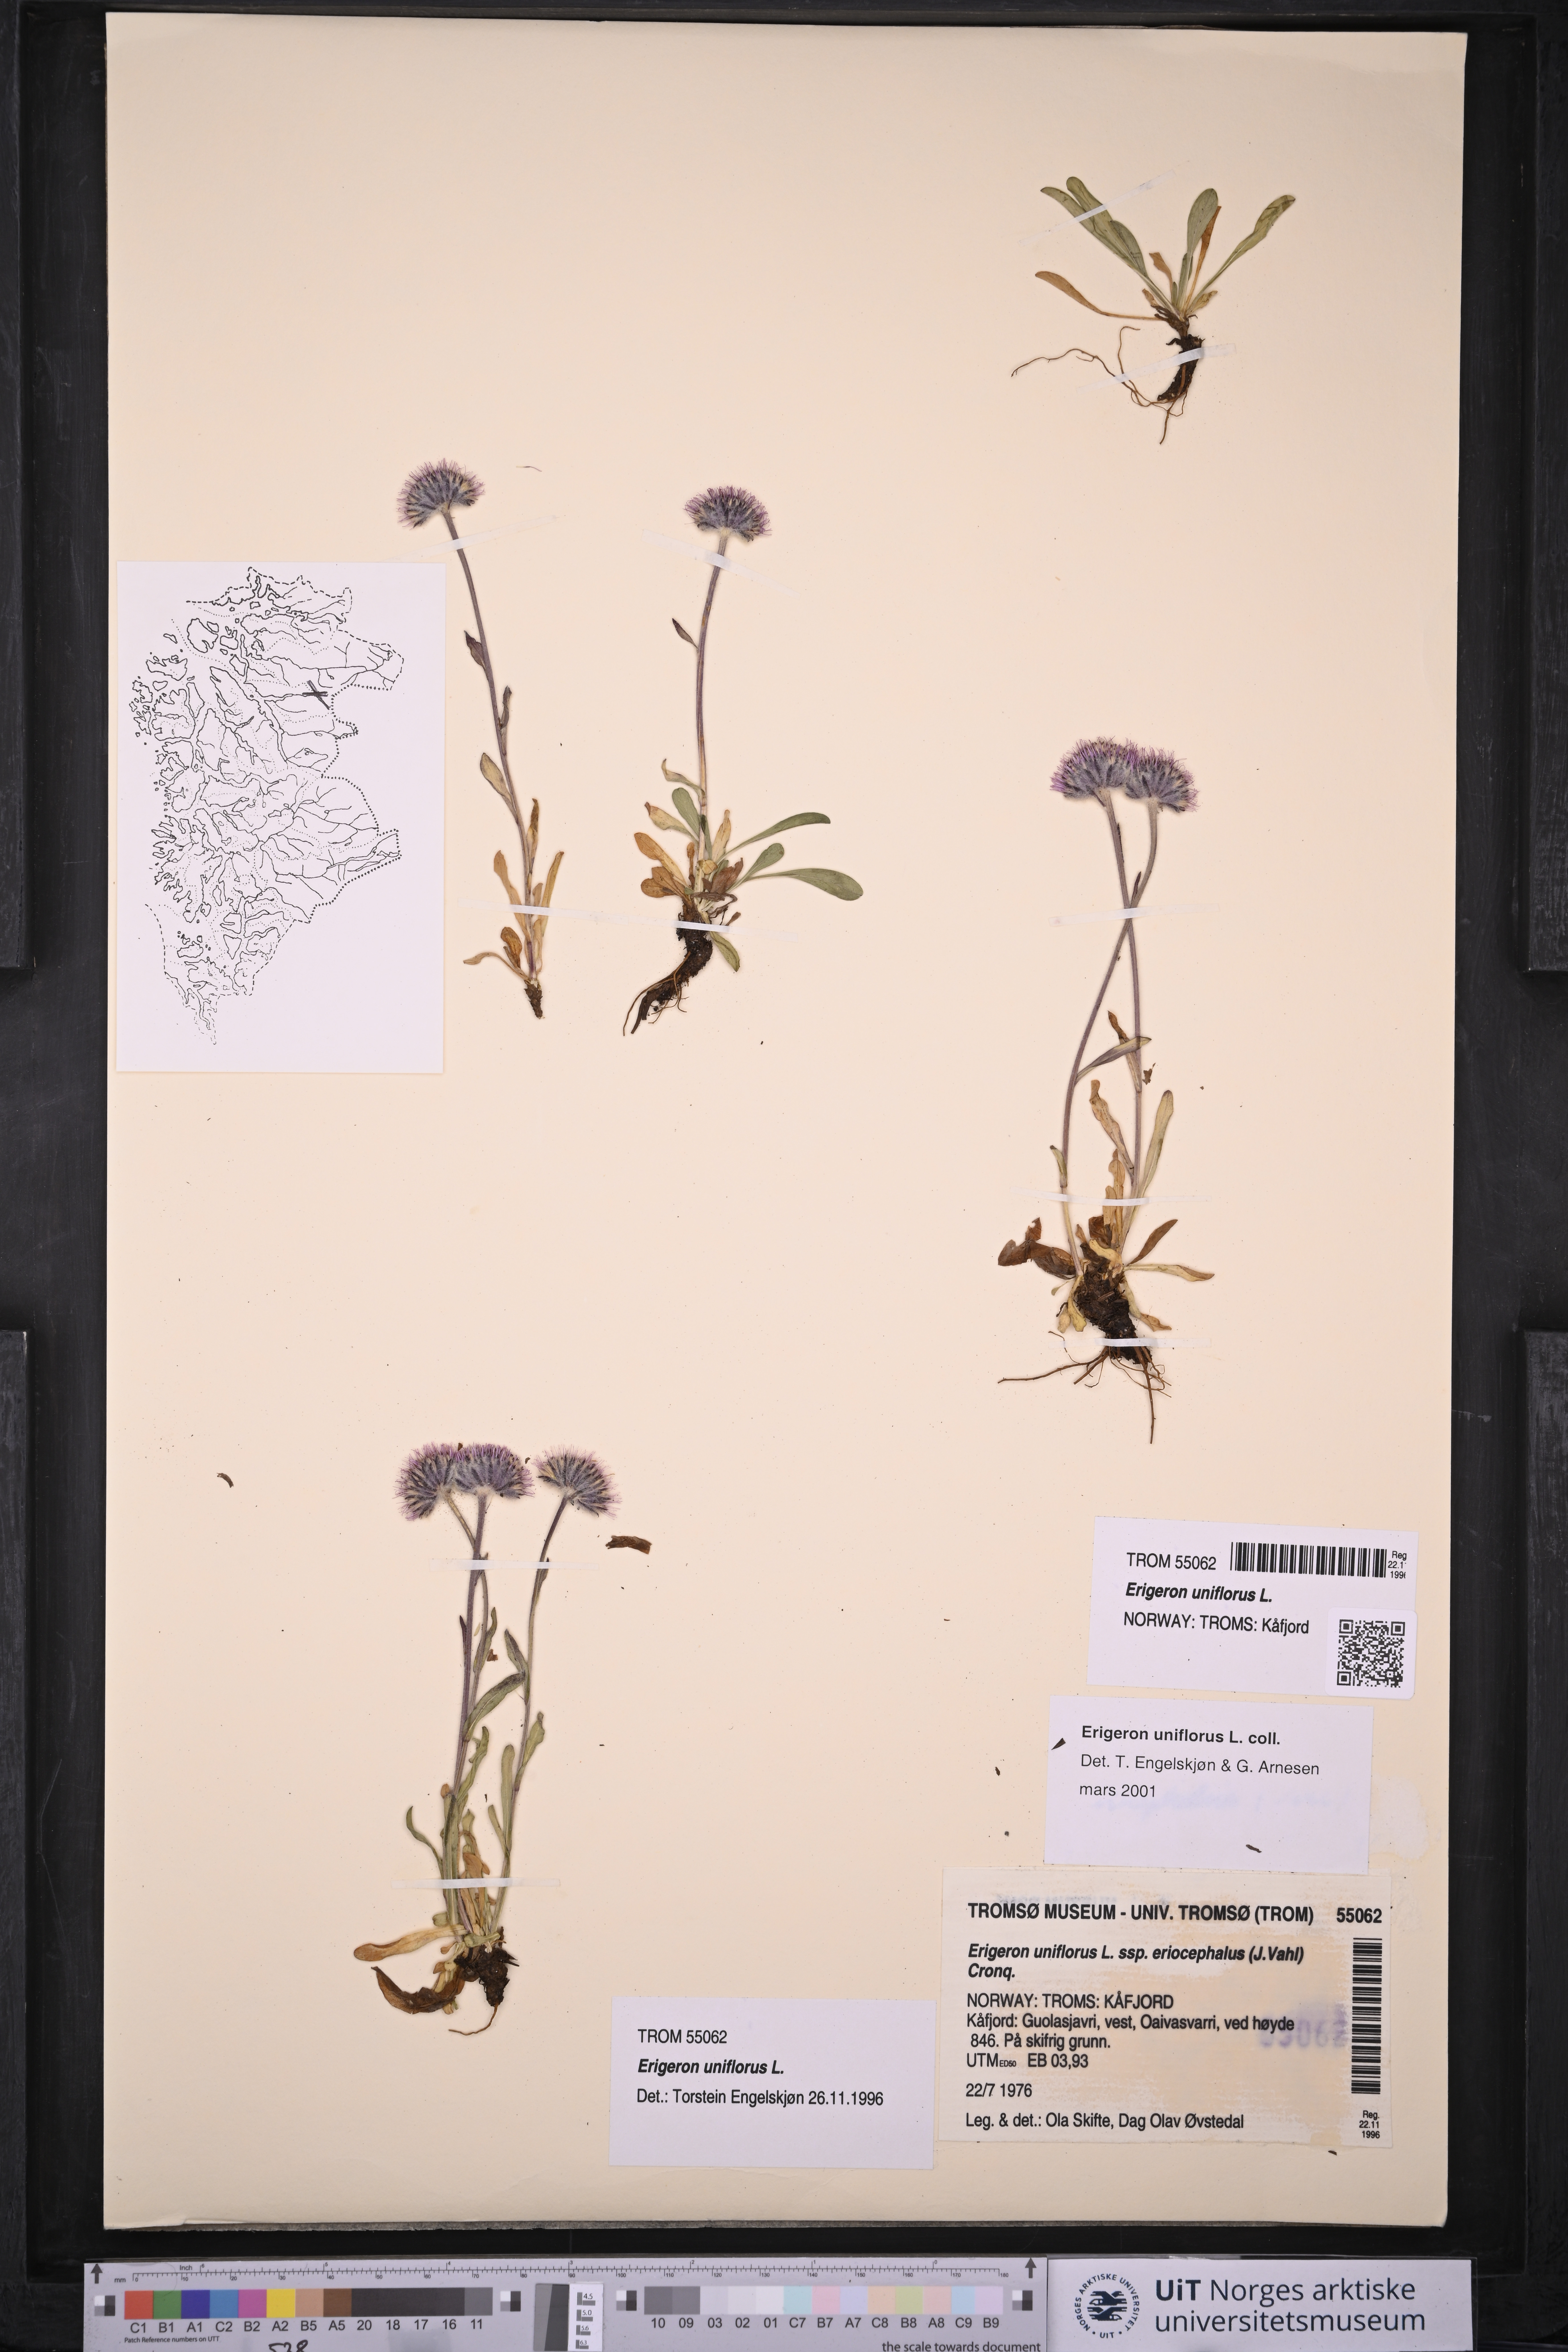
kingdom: Plantae
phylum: Tracheophyta
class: Magnoliopsida
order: Asterales
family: Asteraceae
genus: Erigeron
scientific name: Erigeron uniflorus
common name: Northern daisy
